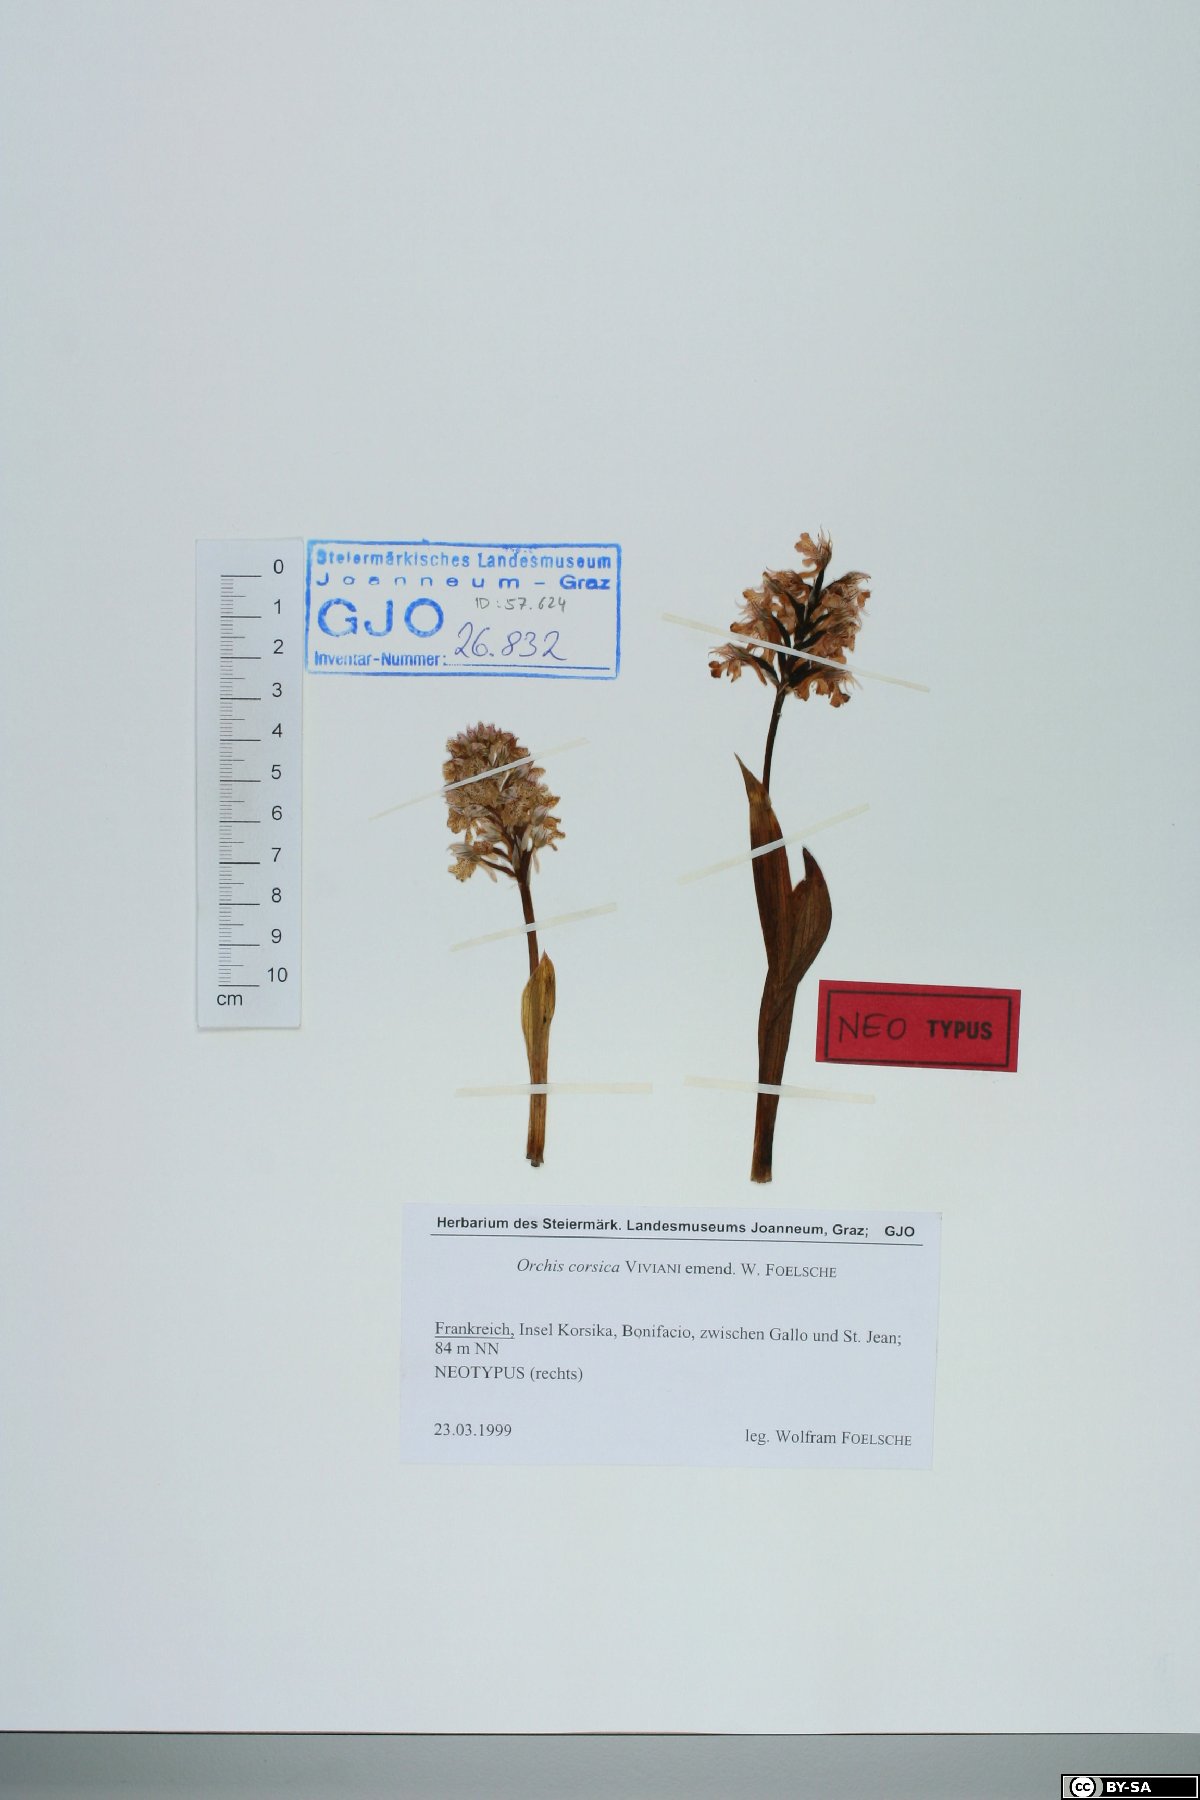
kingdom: Plantae
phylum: Tracheophyta
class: Liliopsida
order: Asparagales
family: Orchidaceae
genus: Neotinea
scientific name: Neotinea lactea
